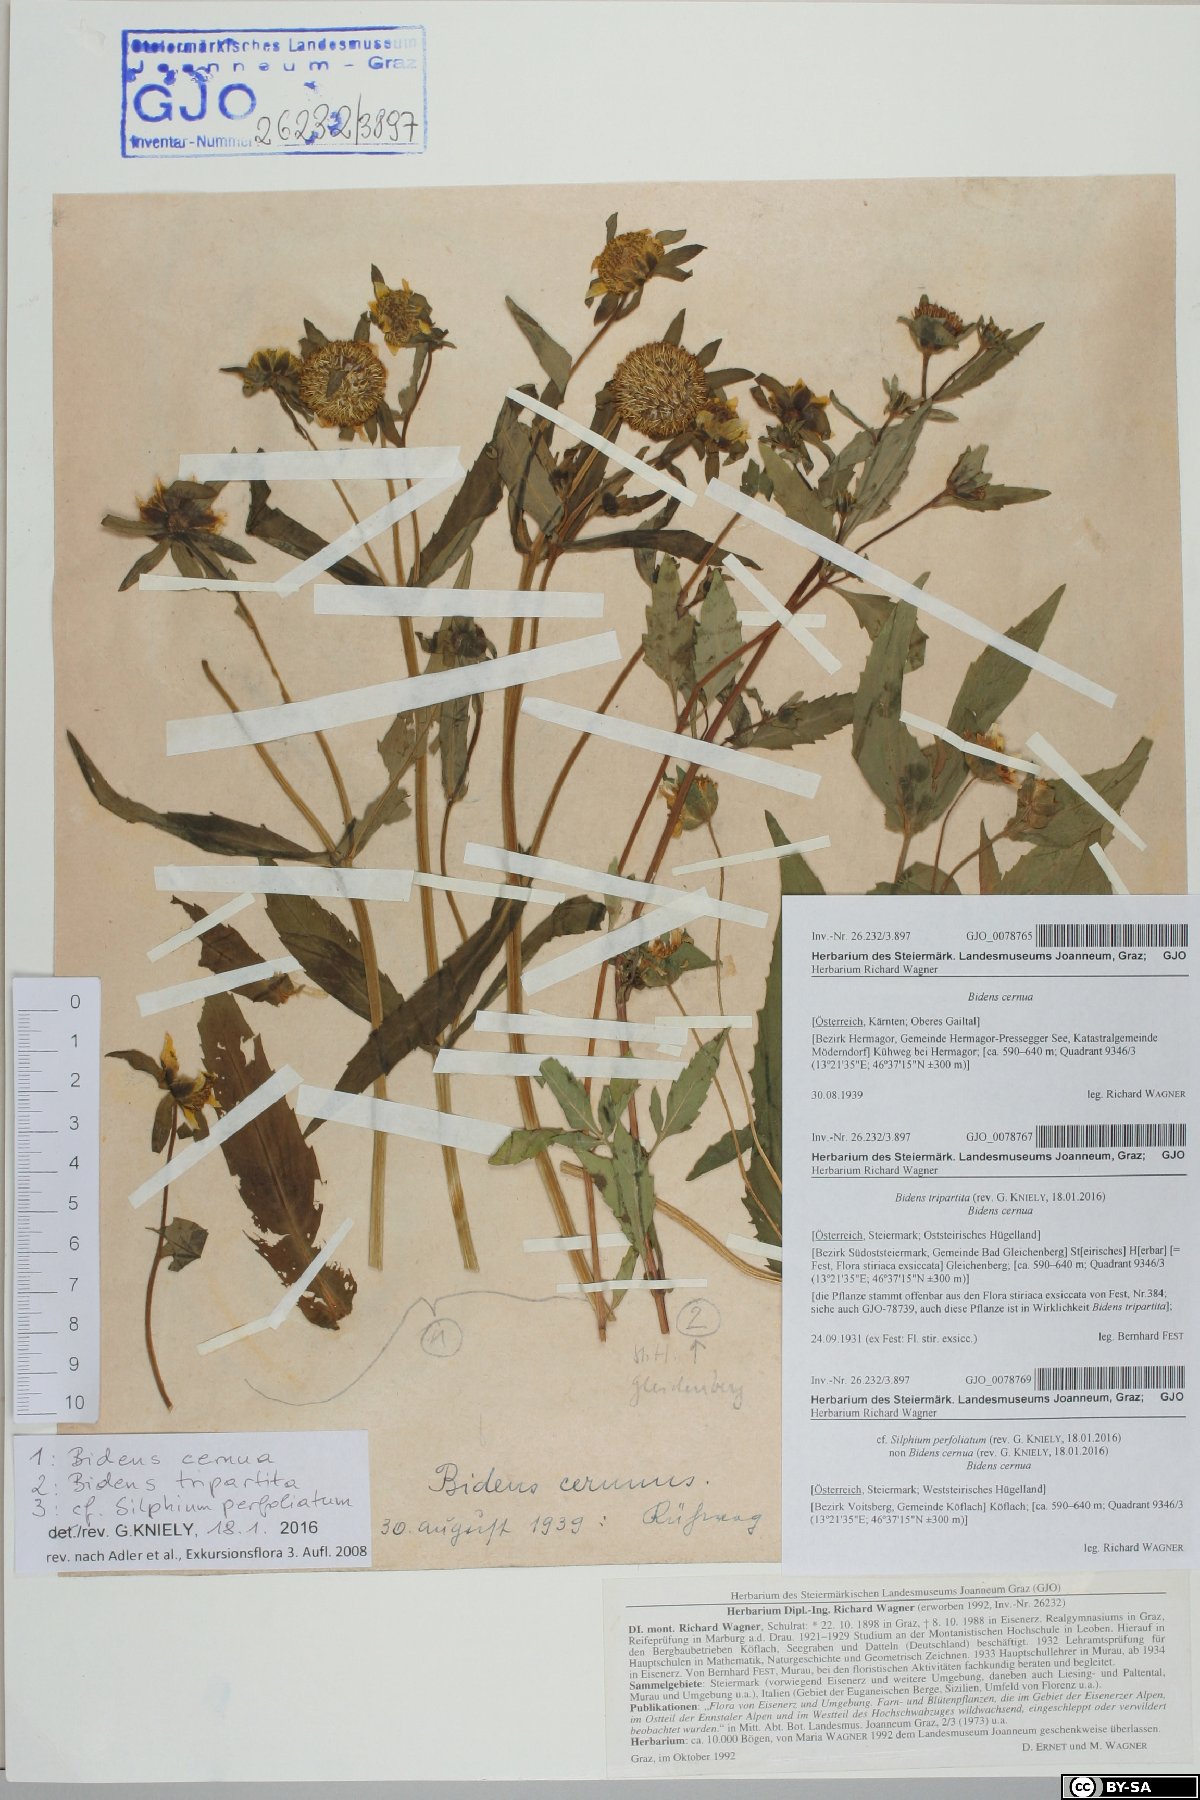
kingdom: Plantae
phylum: Tracheophyta
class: Magnoliopsida
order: Asterales
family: Asteraceae
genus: Silphium
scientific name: Silphium perfoliatum
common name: Cup-plant
